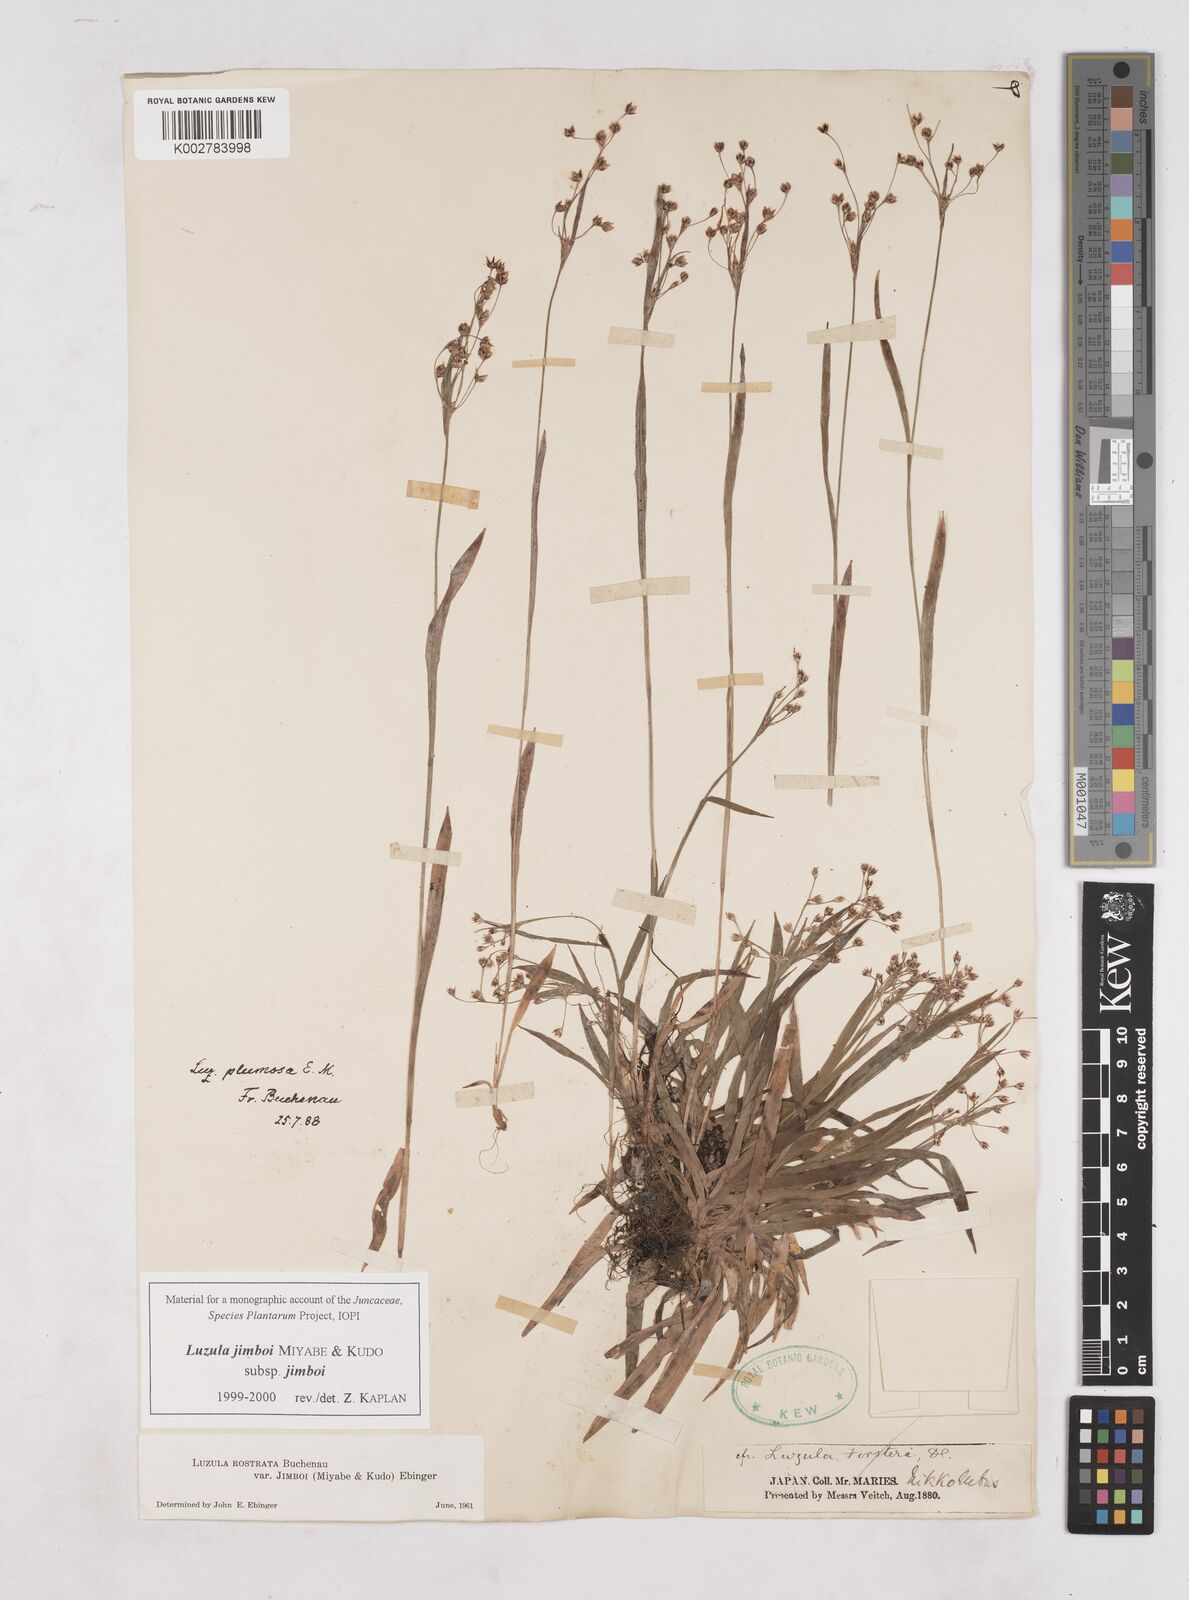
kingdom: Plantae
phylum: Tracheophyta
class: Liliopsida
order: Poales
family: Juncaceae
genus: Luzula
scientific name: Luzula jimboi
